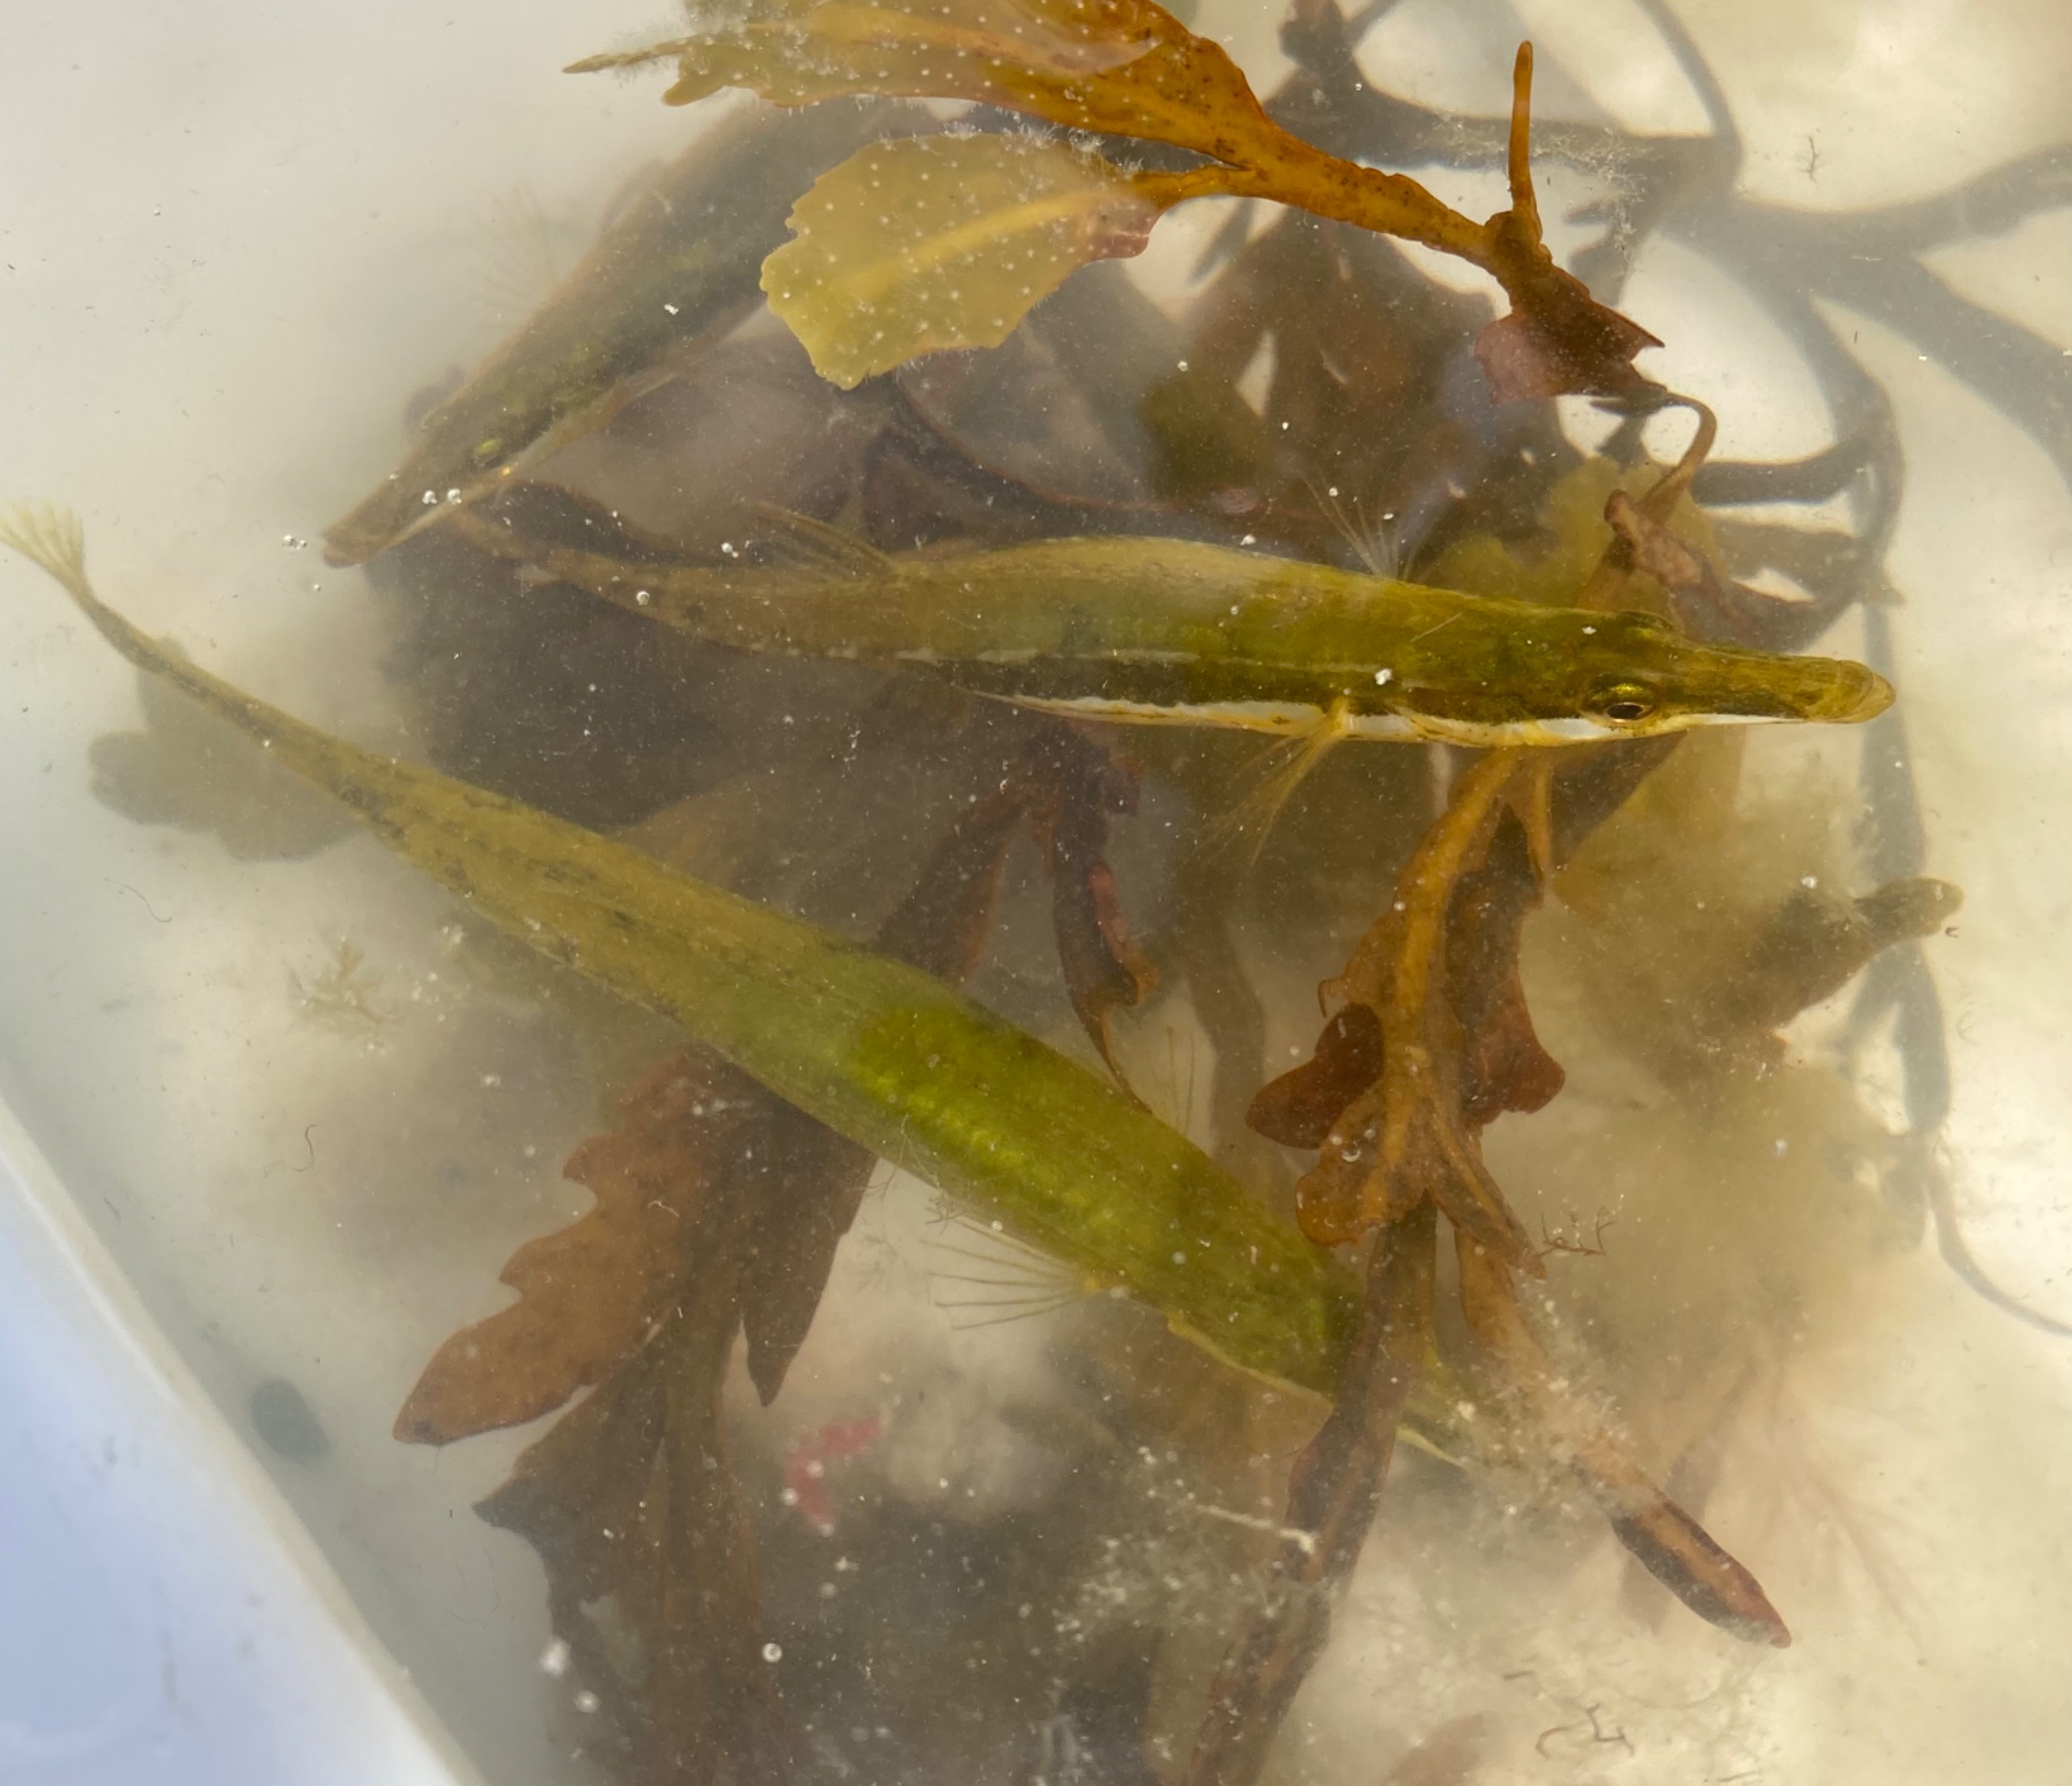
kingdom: Animalia
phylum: Chordata
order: Gasterosteiformes
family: Gasterosteidae
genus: Spinachia
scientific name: Spinachia spinachia
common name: Tangsnarre
